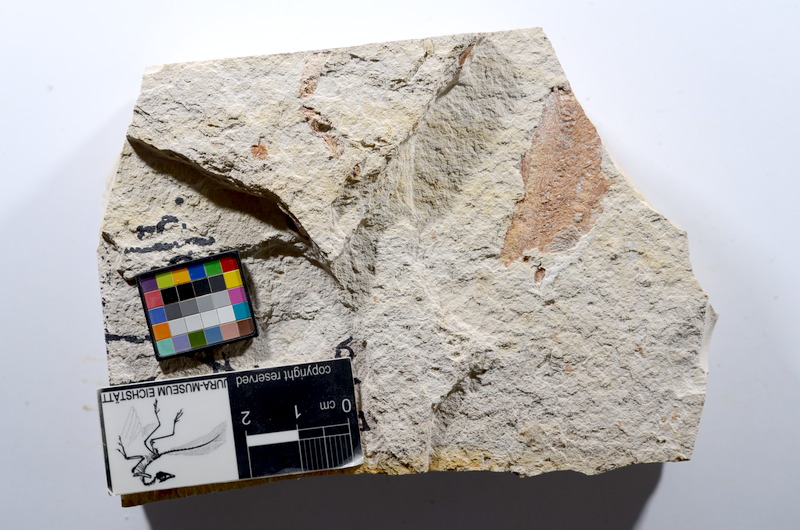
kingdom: Animalia
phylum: Chordata
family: Ascalaboidae
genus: Tharsis
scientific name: Tharsis dubius
